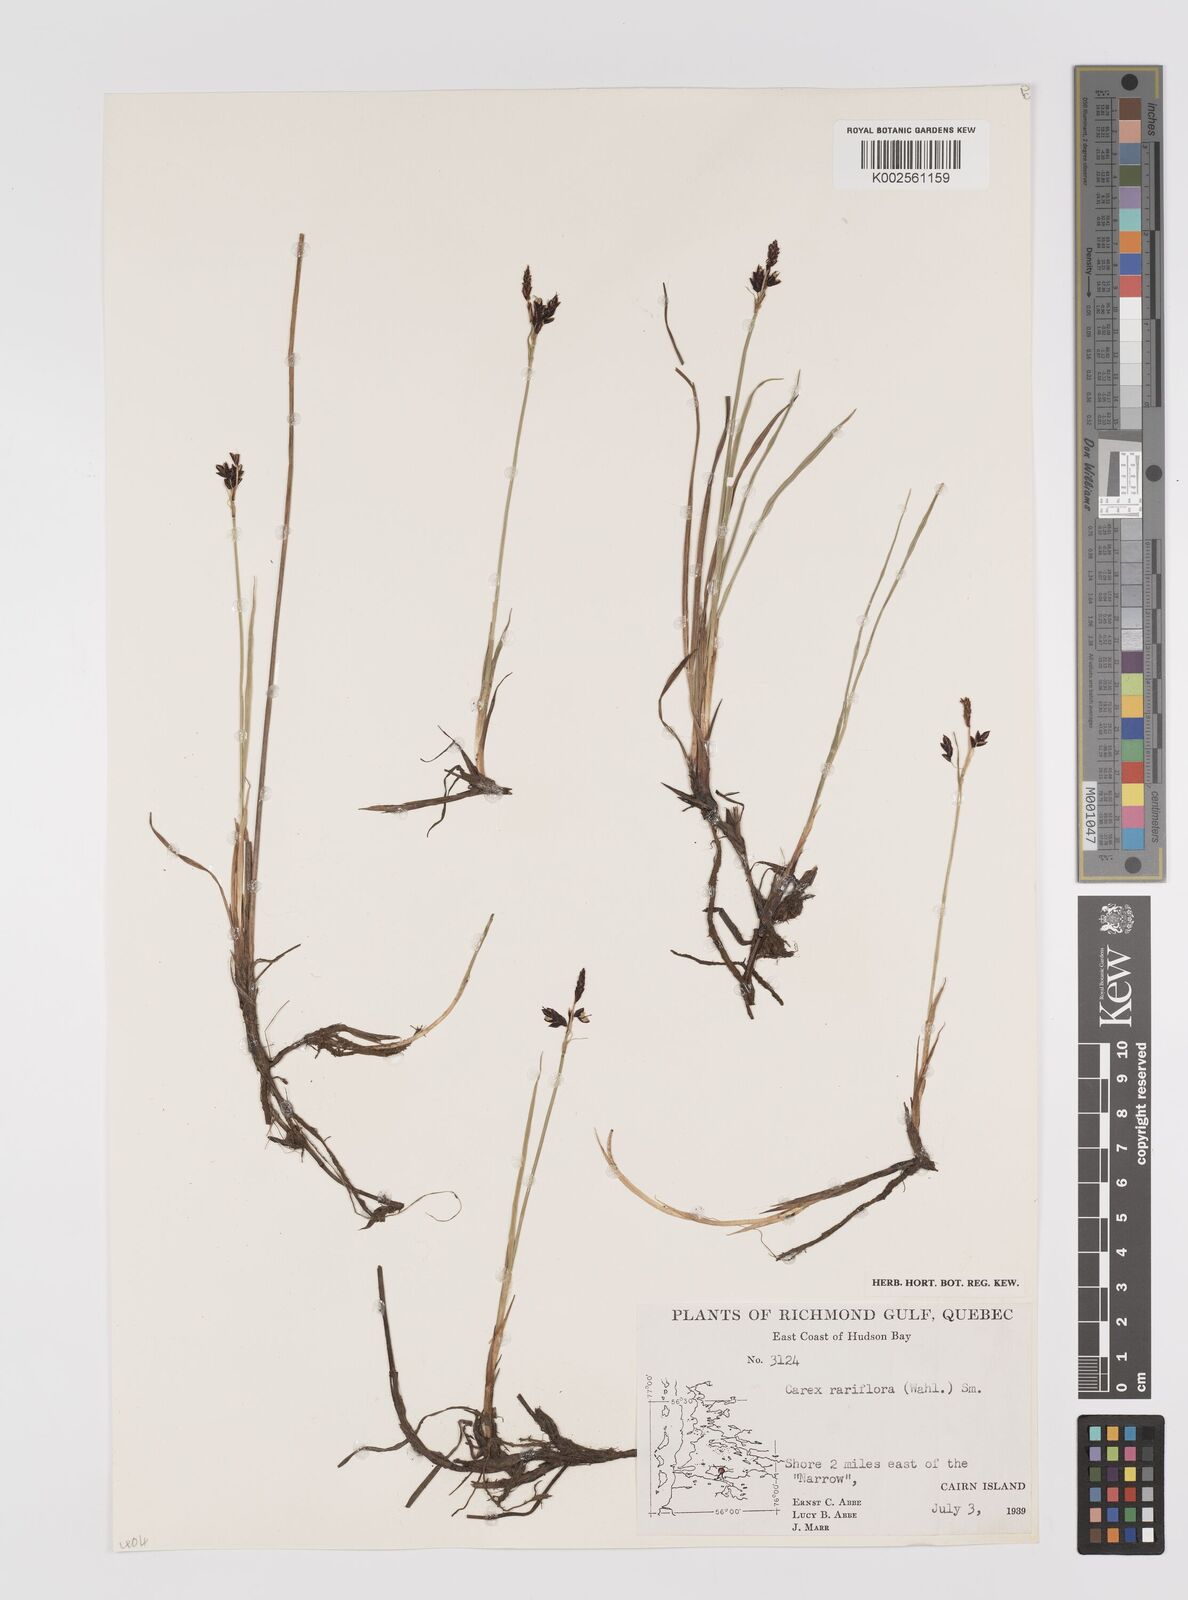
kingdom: Plantae
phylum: Tracheophyta
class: Liliopsida
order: Poales
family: Cyperaceae
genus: Carex
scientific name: Carex rariflora
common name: Loose-flowered alpine sedge
